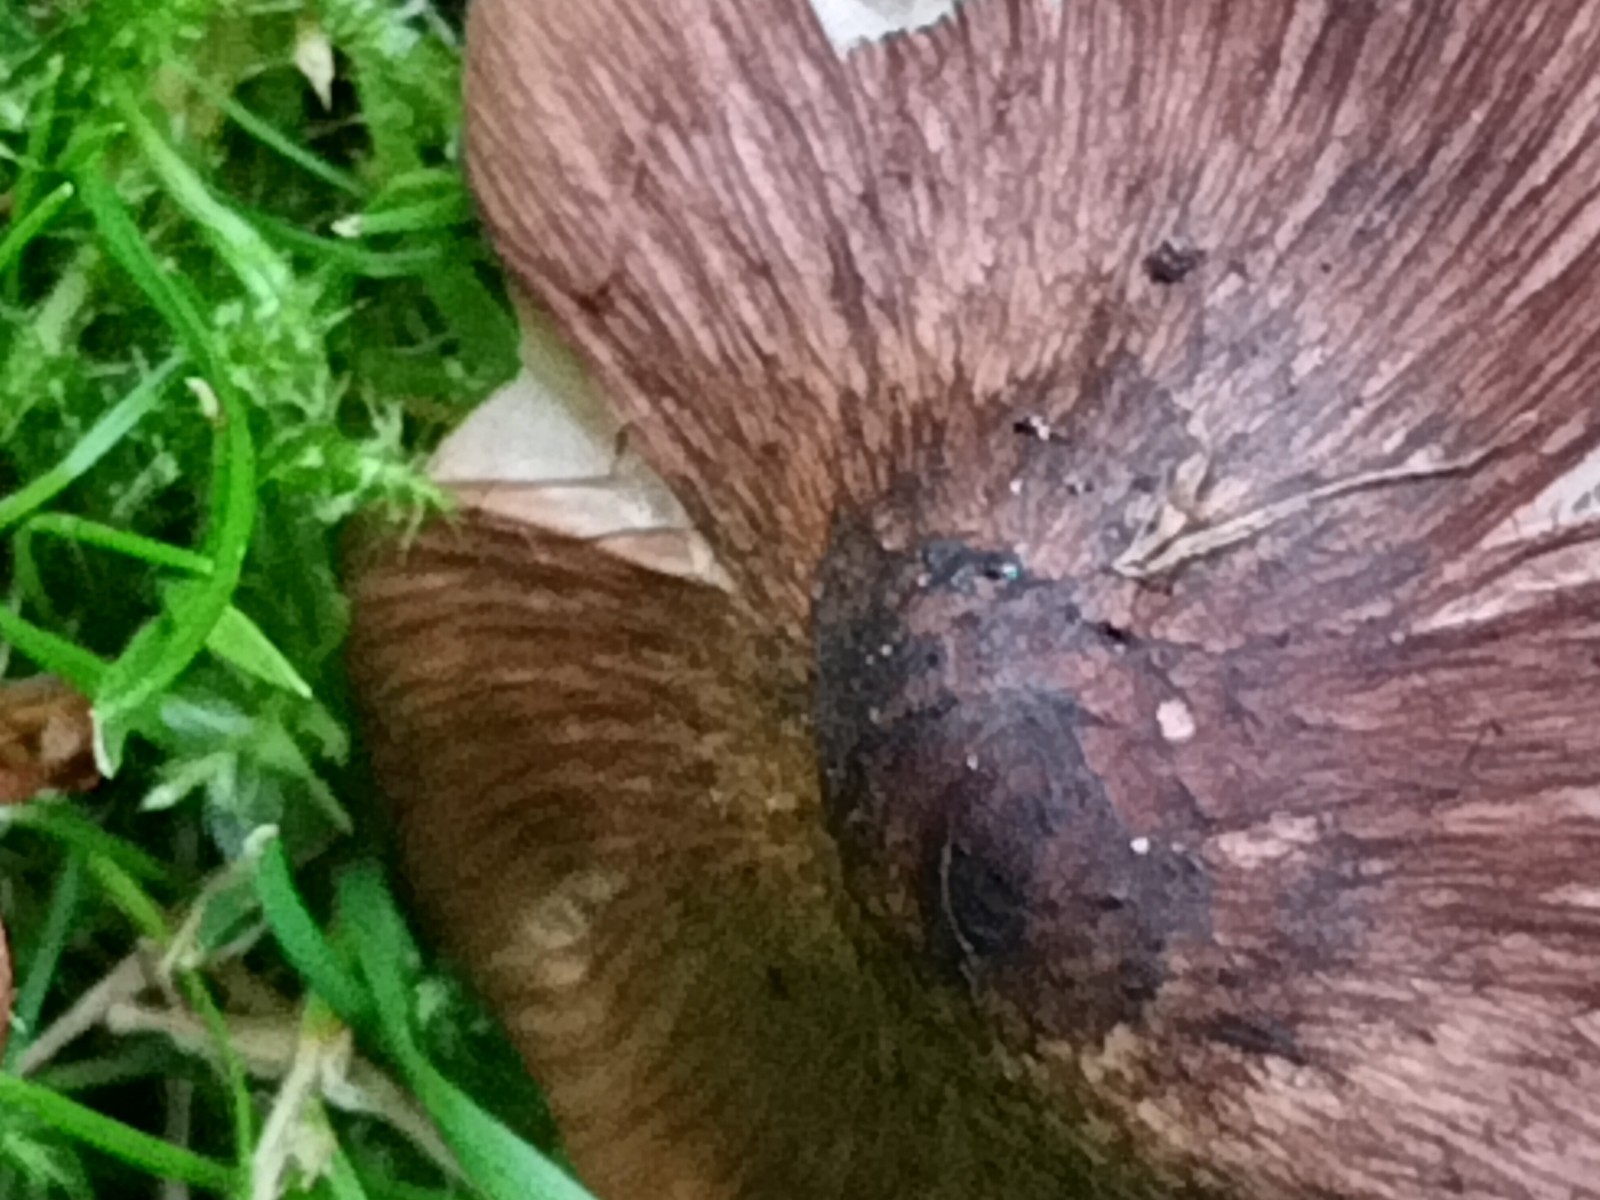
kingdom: Fungi
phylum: Basidiomycota
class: Agaricomycetes
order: Agaricales
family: Inocybaceae
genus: Inosperma
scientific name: Inosperma adaequatum
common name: vinrød trævlhat
